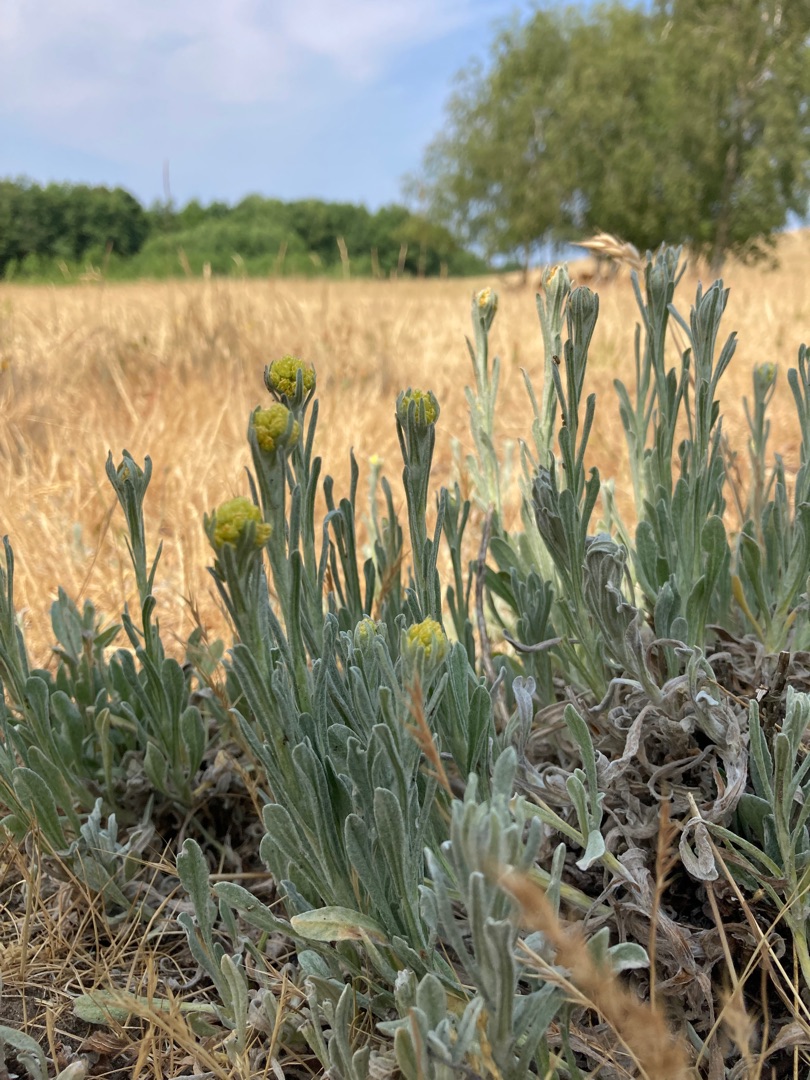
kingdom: Plantae
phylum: Tracheophyta
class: Magnoliopsida
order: Asterales
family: Asteraceae
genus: Helichrysum
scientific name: Helichrysum arenarium
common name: Gul evighedsblomst
